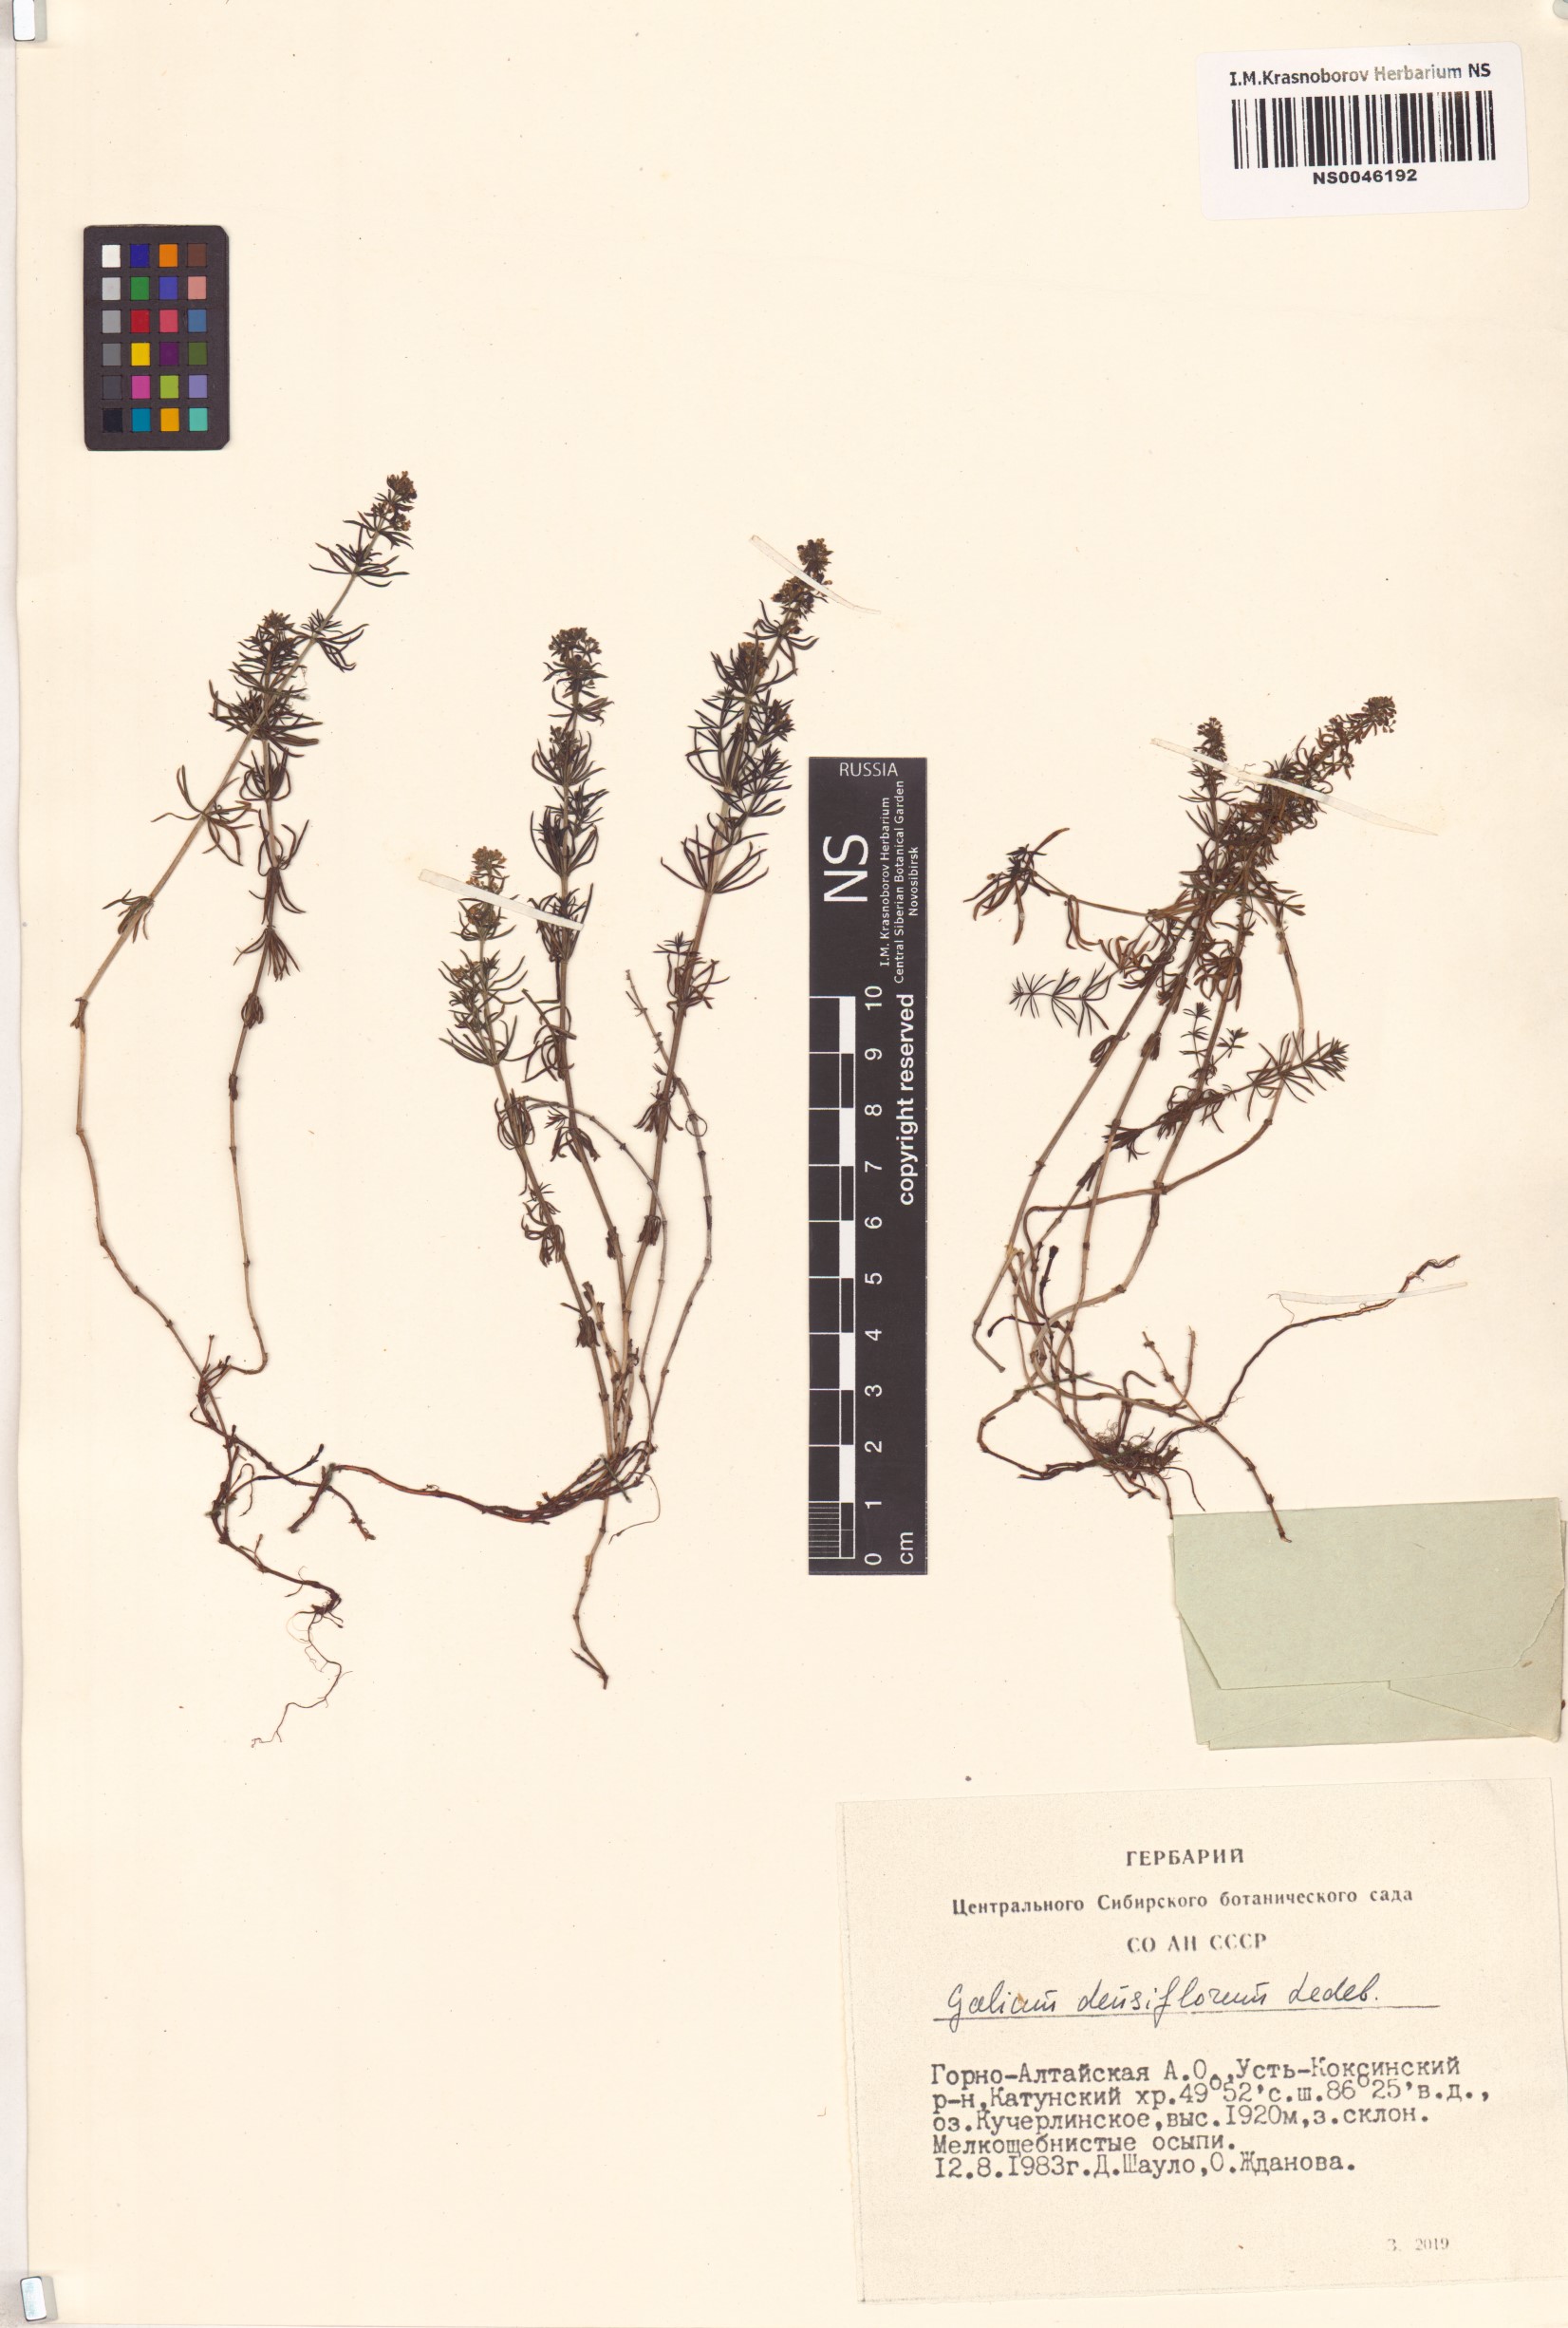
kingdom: Plantae
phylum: Tracheophyta
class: Magnoliopsida
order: Gentianales
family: Rubiaceae
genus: Galium
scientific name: Galium densiflorum
